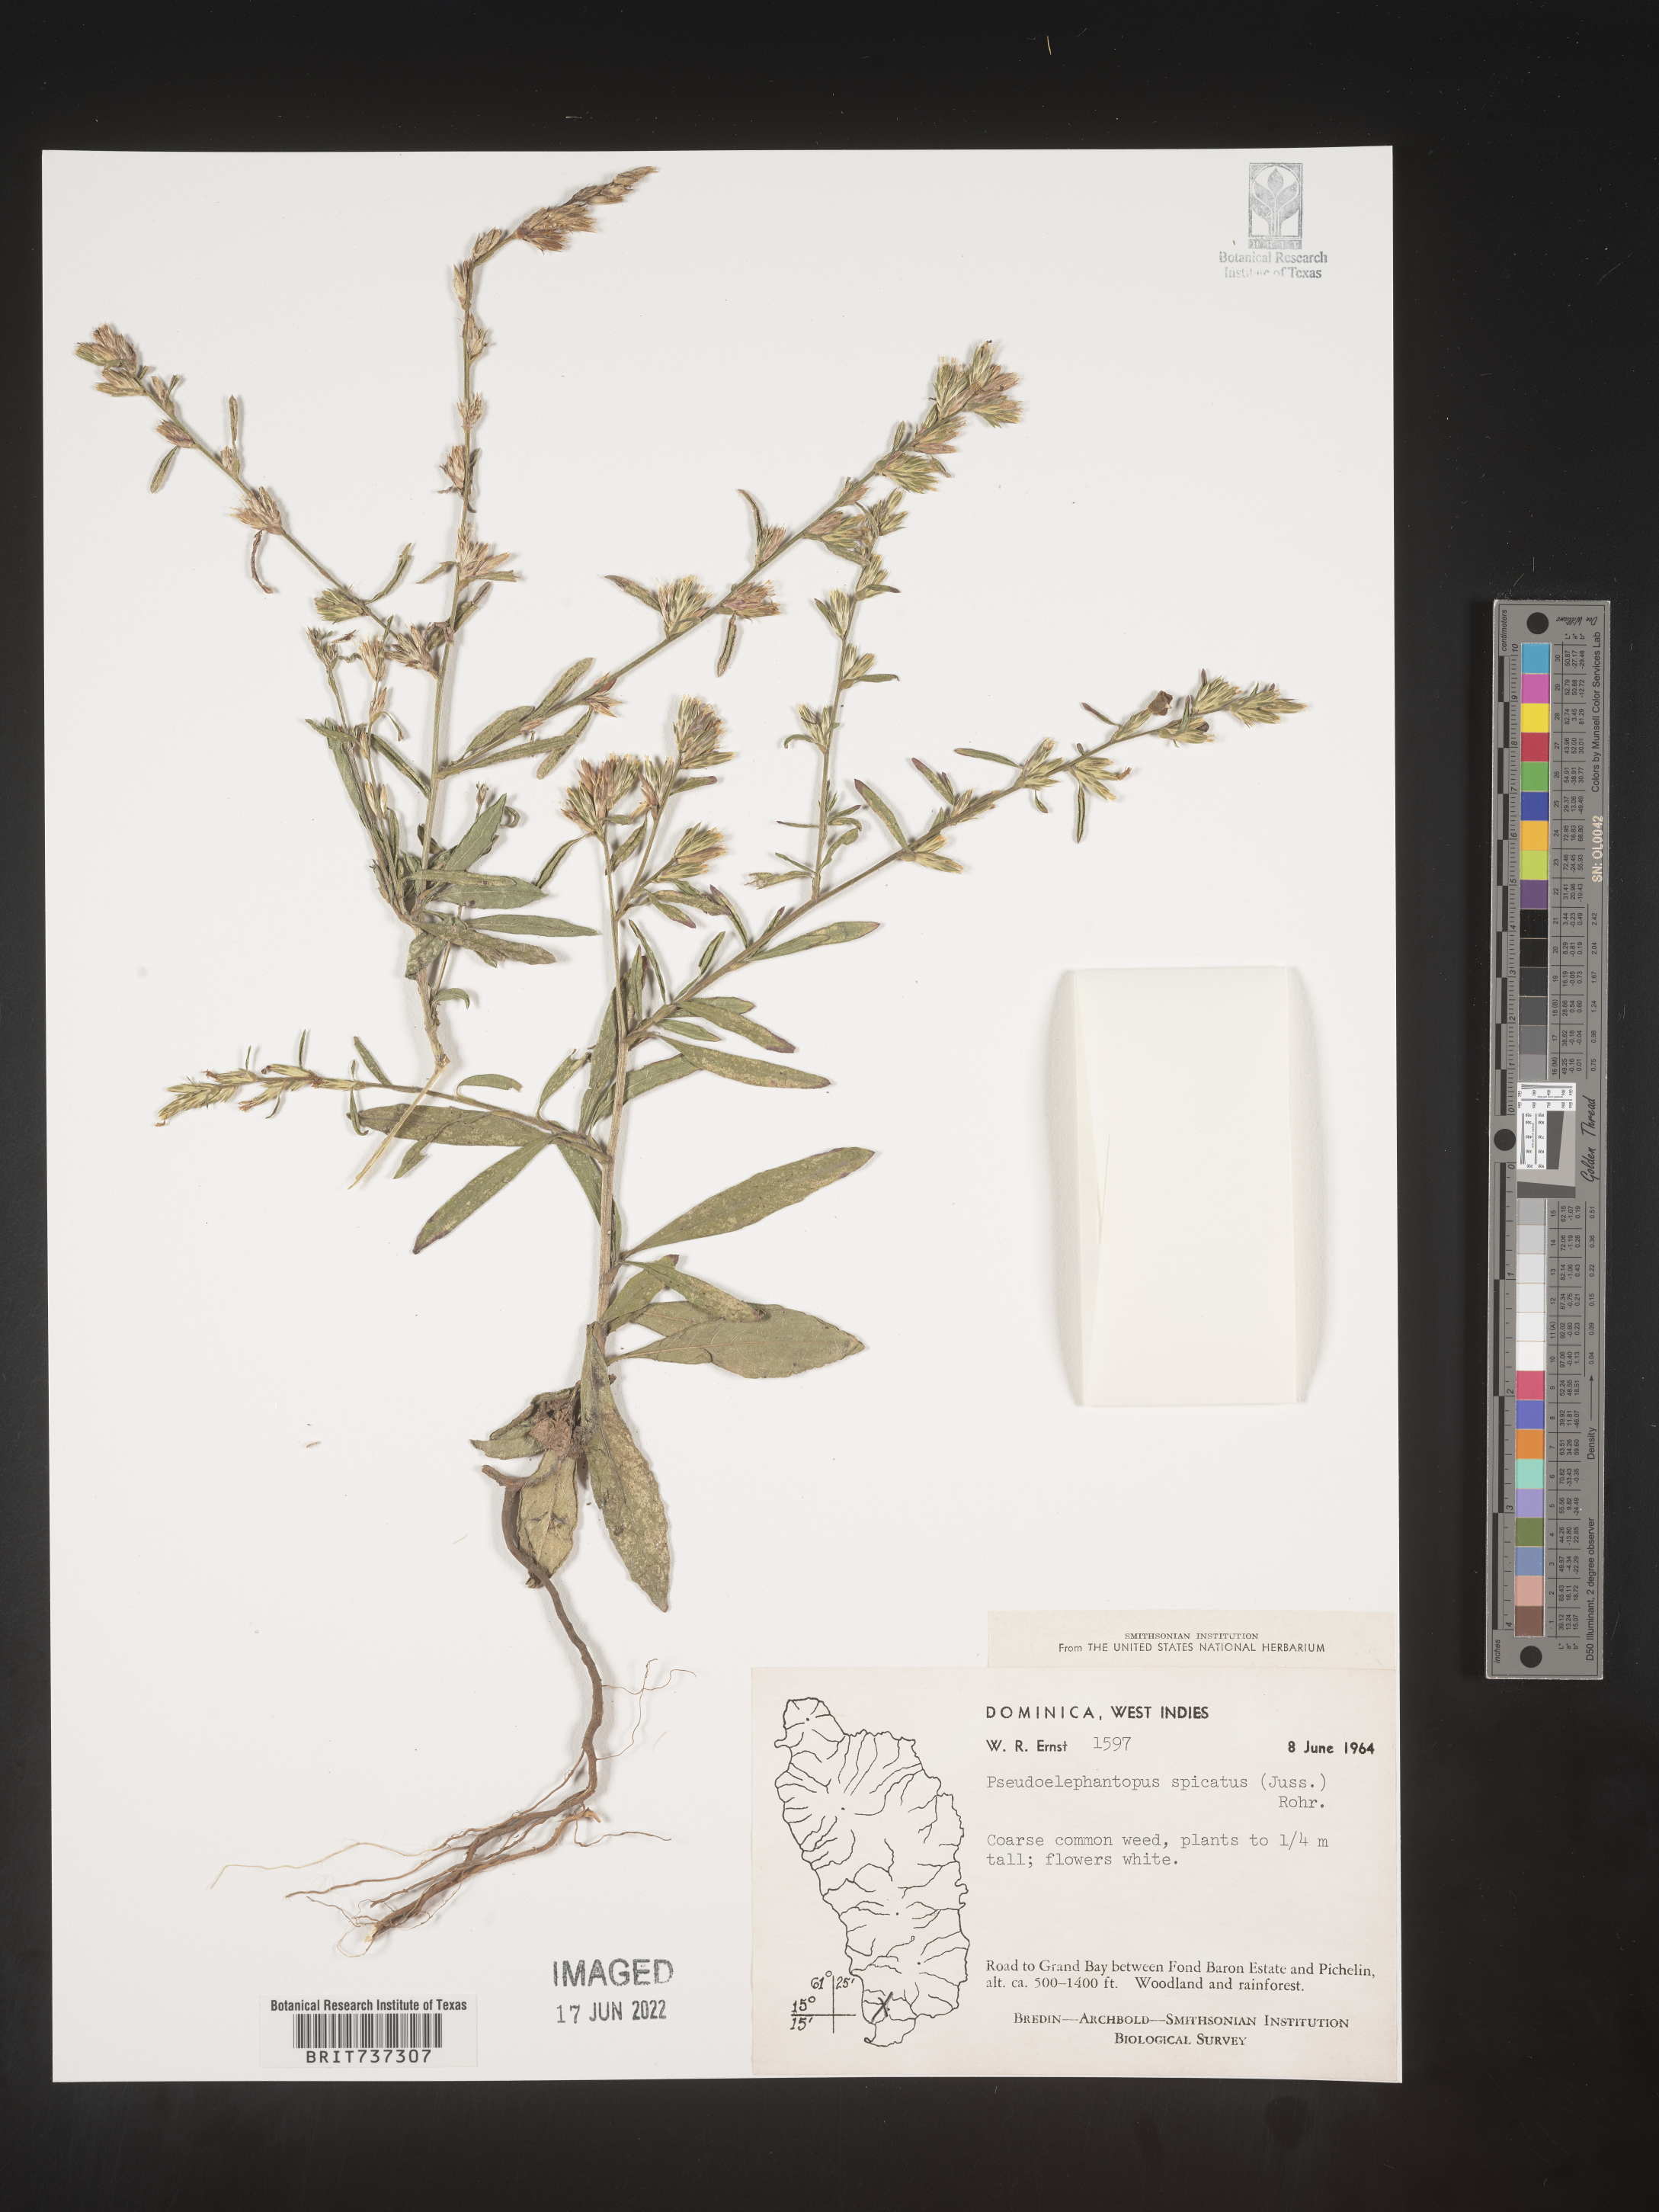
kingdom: Plantae
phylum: Tracheophyta
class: Magnoliopsida
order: Asterales
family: Asteraceae
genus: Pseudelephantopus
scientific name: Pseudelephantopus
